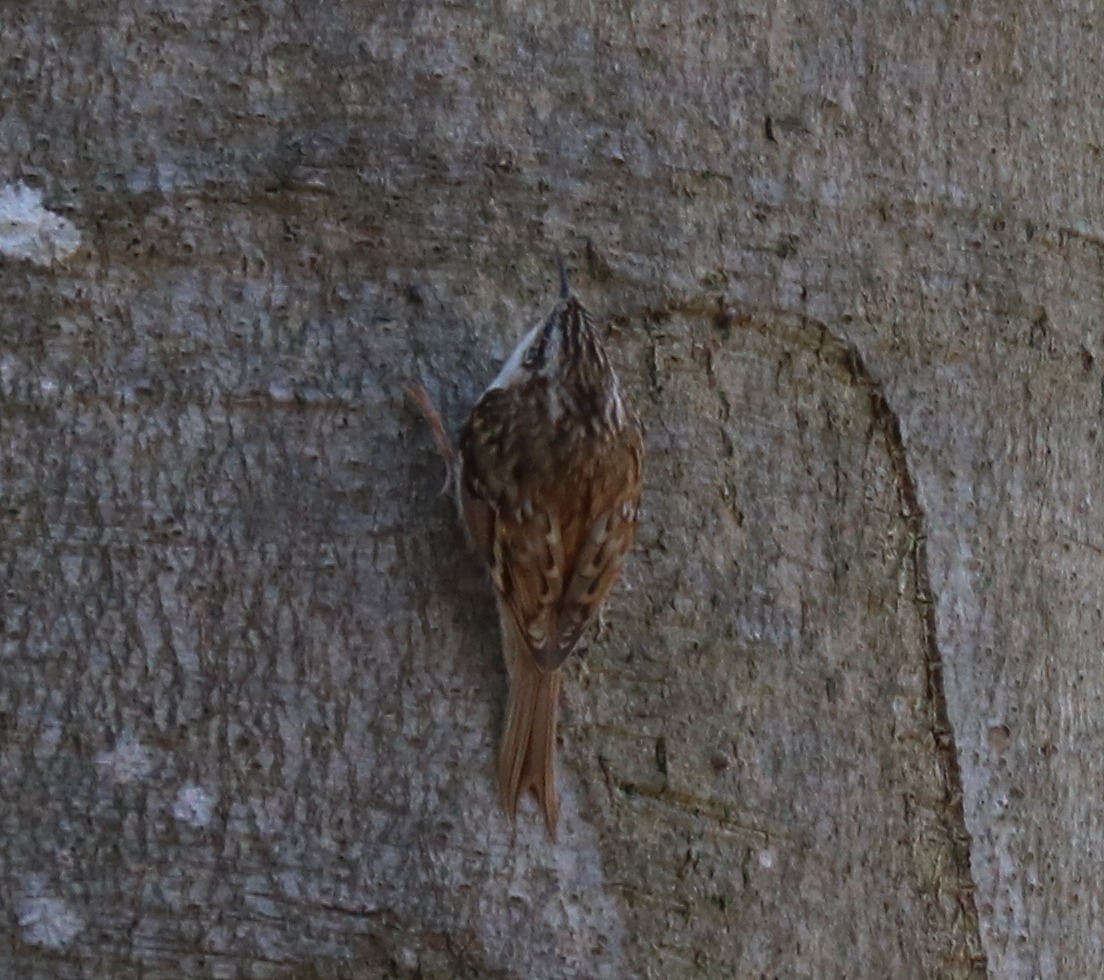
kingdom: Animalia
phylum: Chordata
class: Aves
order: Passeriformes
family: Certhiidae
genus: Certhia
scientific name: Certhia familiaris
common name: Træløber
